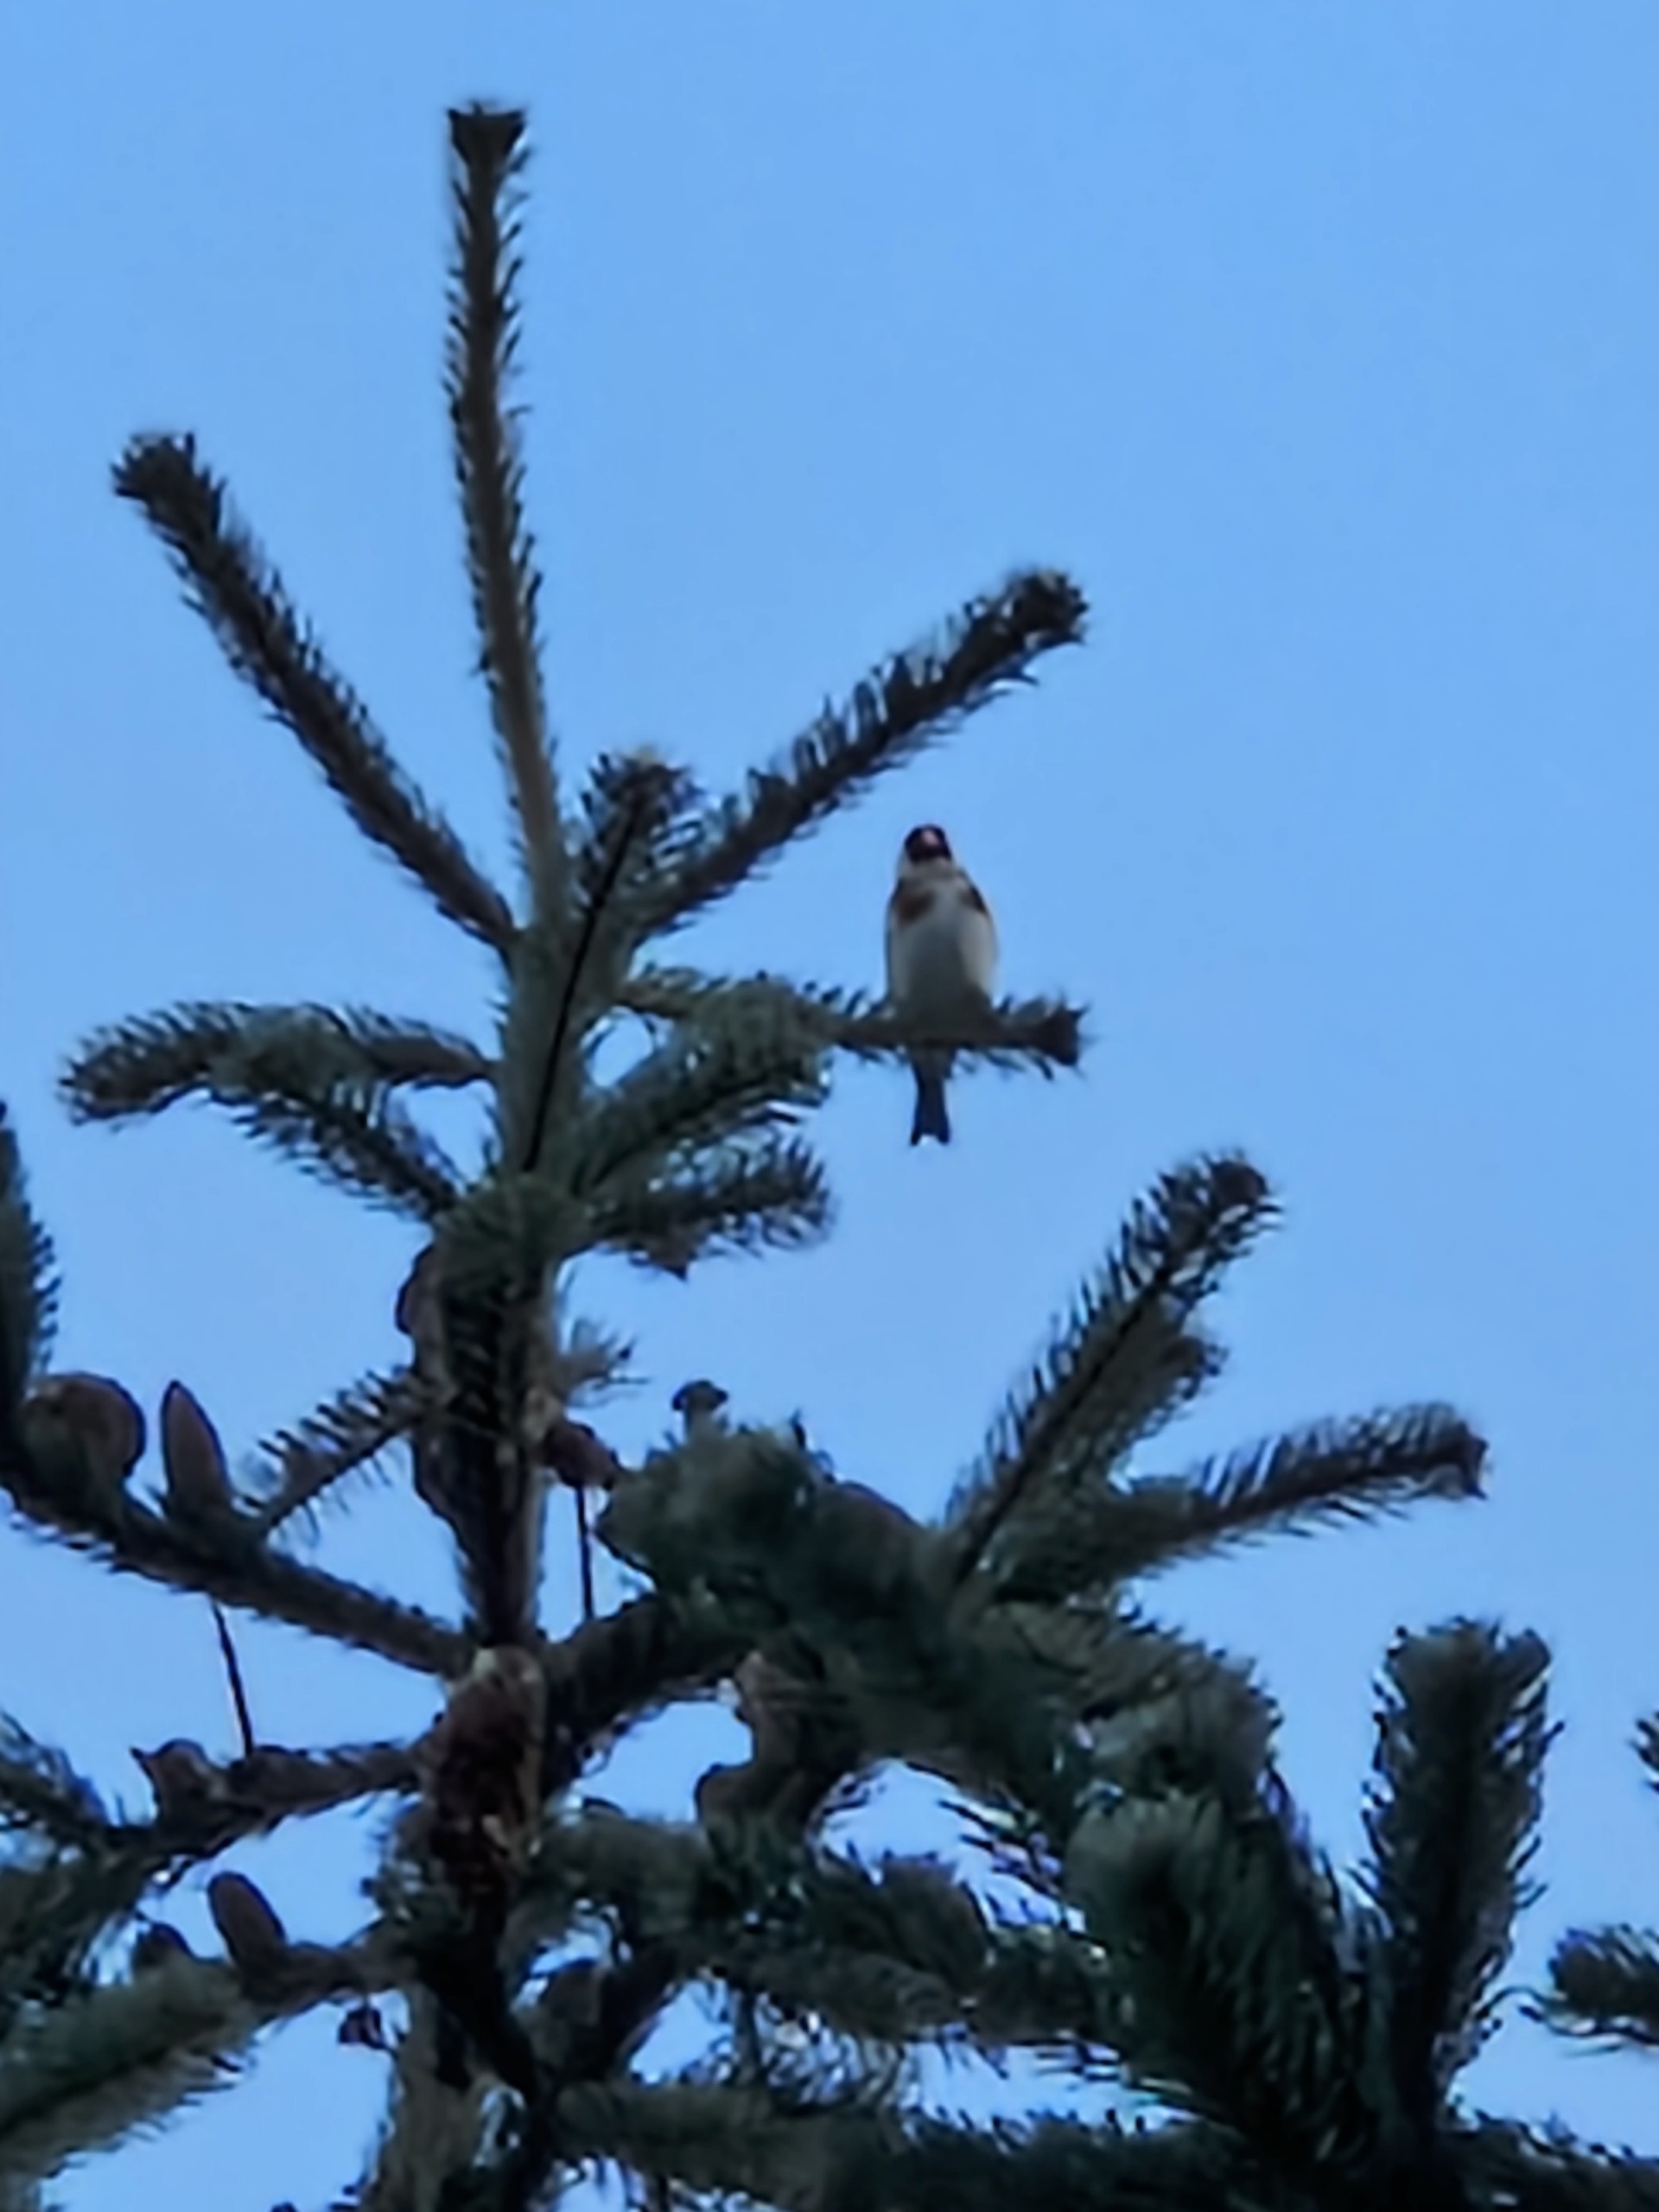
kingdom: Animalia
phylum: Chordata
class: Aves
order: Passeriformes
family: Fringillidae
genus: Carduelis
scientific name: Carduelis carduelis
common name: Stillits
